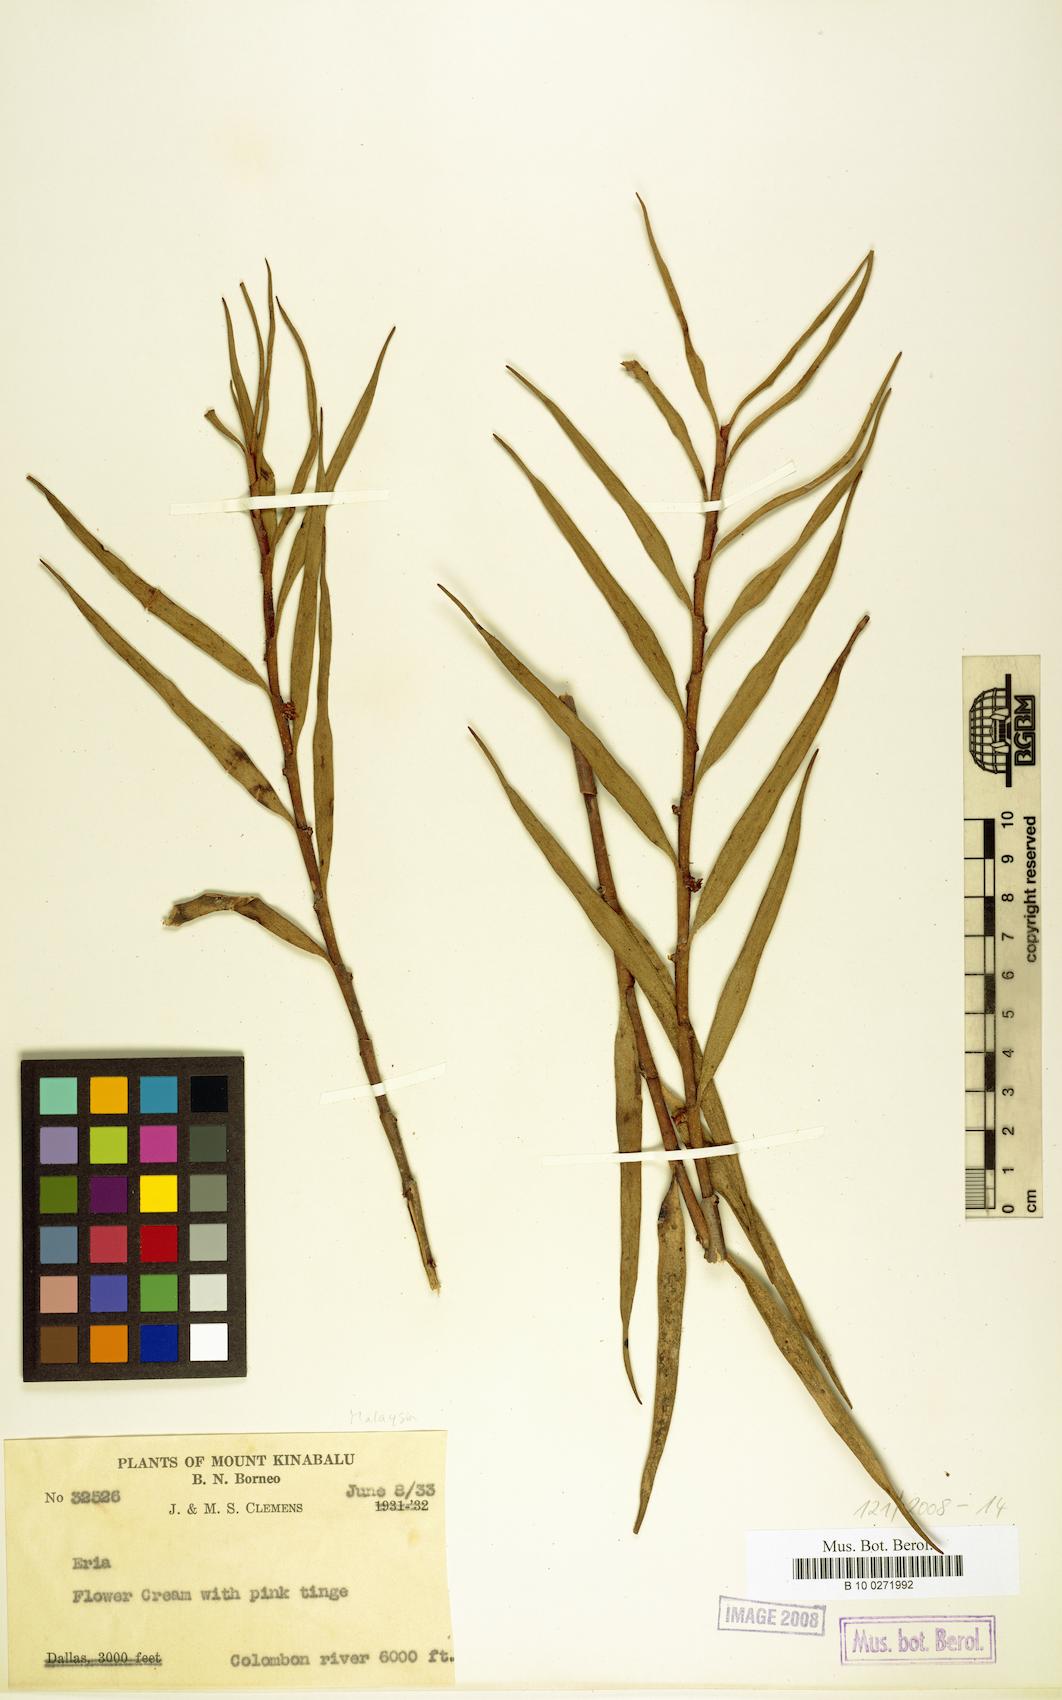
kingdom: Plantae
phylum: Tracheophyta
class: Liliopsida
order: Asparagales
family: Orchidaceae
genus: Eria
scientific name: Eria
